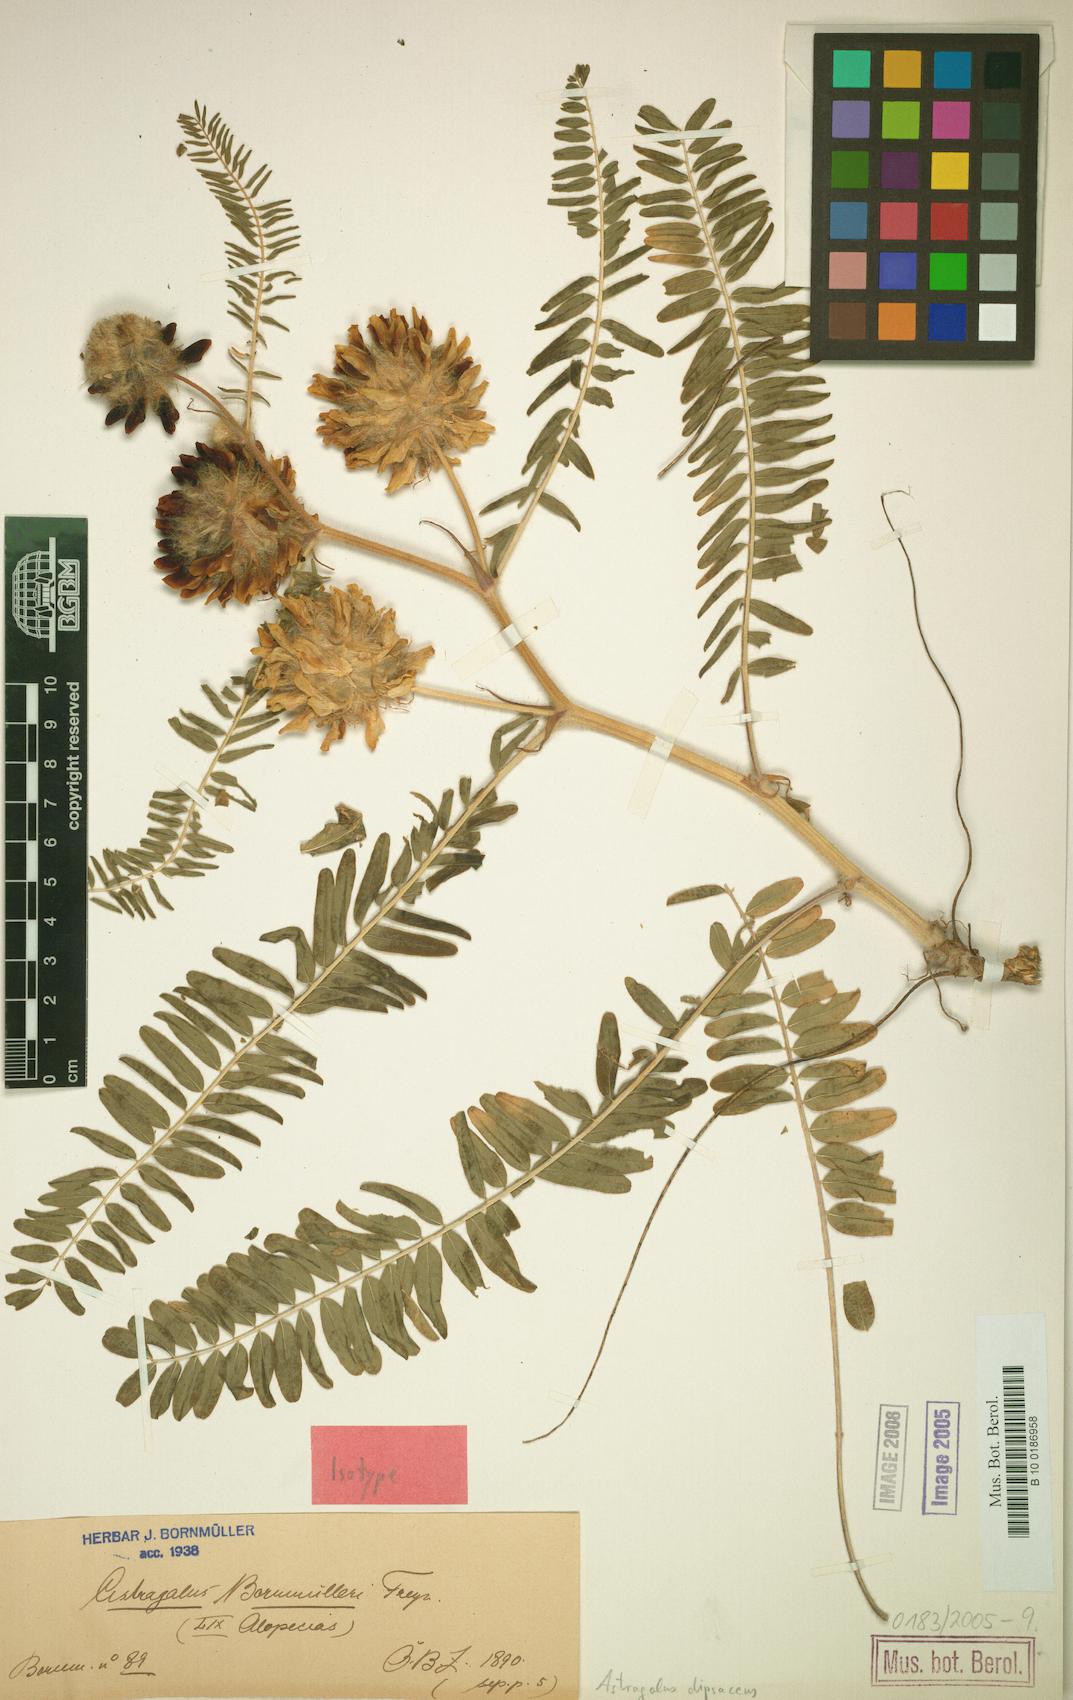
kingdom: Plantae
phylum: Tracheophyta
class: Magnoliopsida
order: Fabales
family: Fabaceae
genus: Astragalus
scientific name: Astragalus dipsaceus
